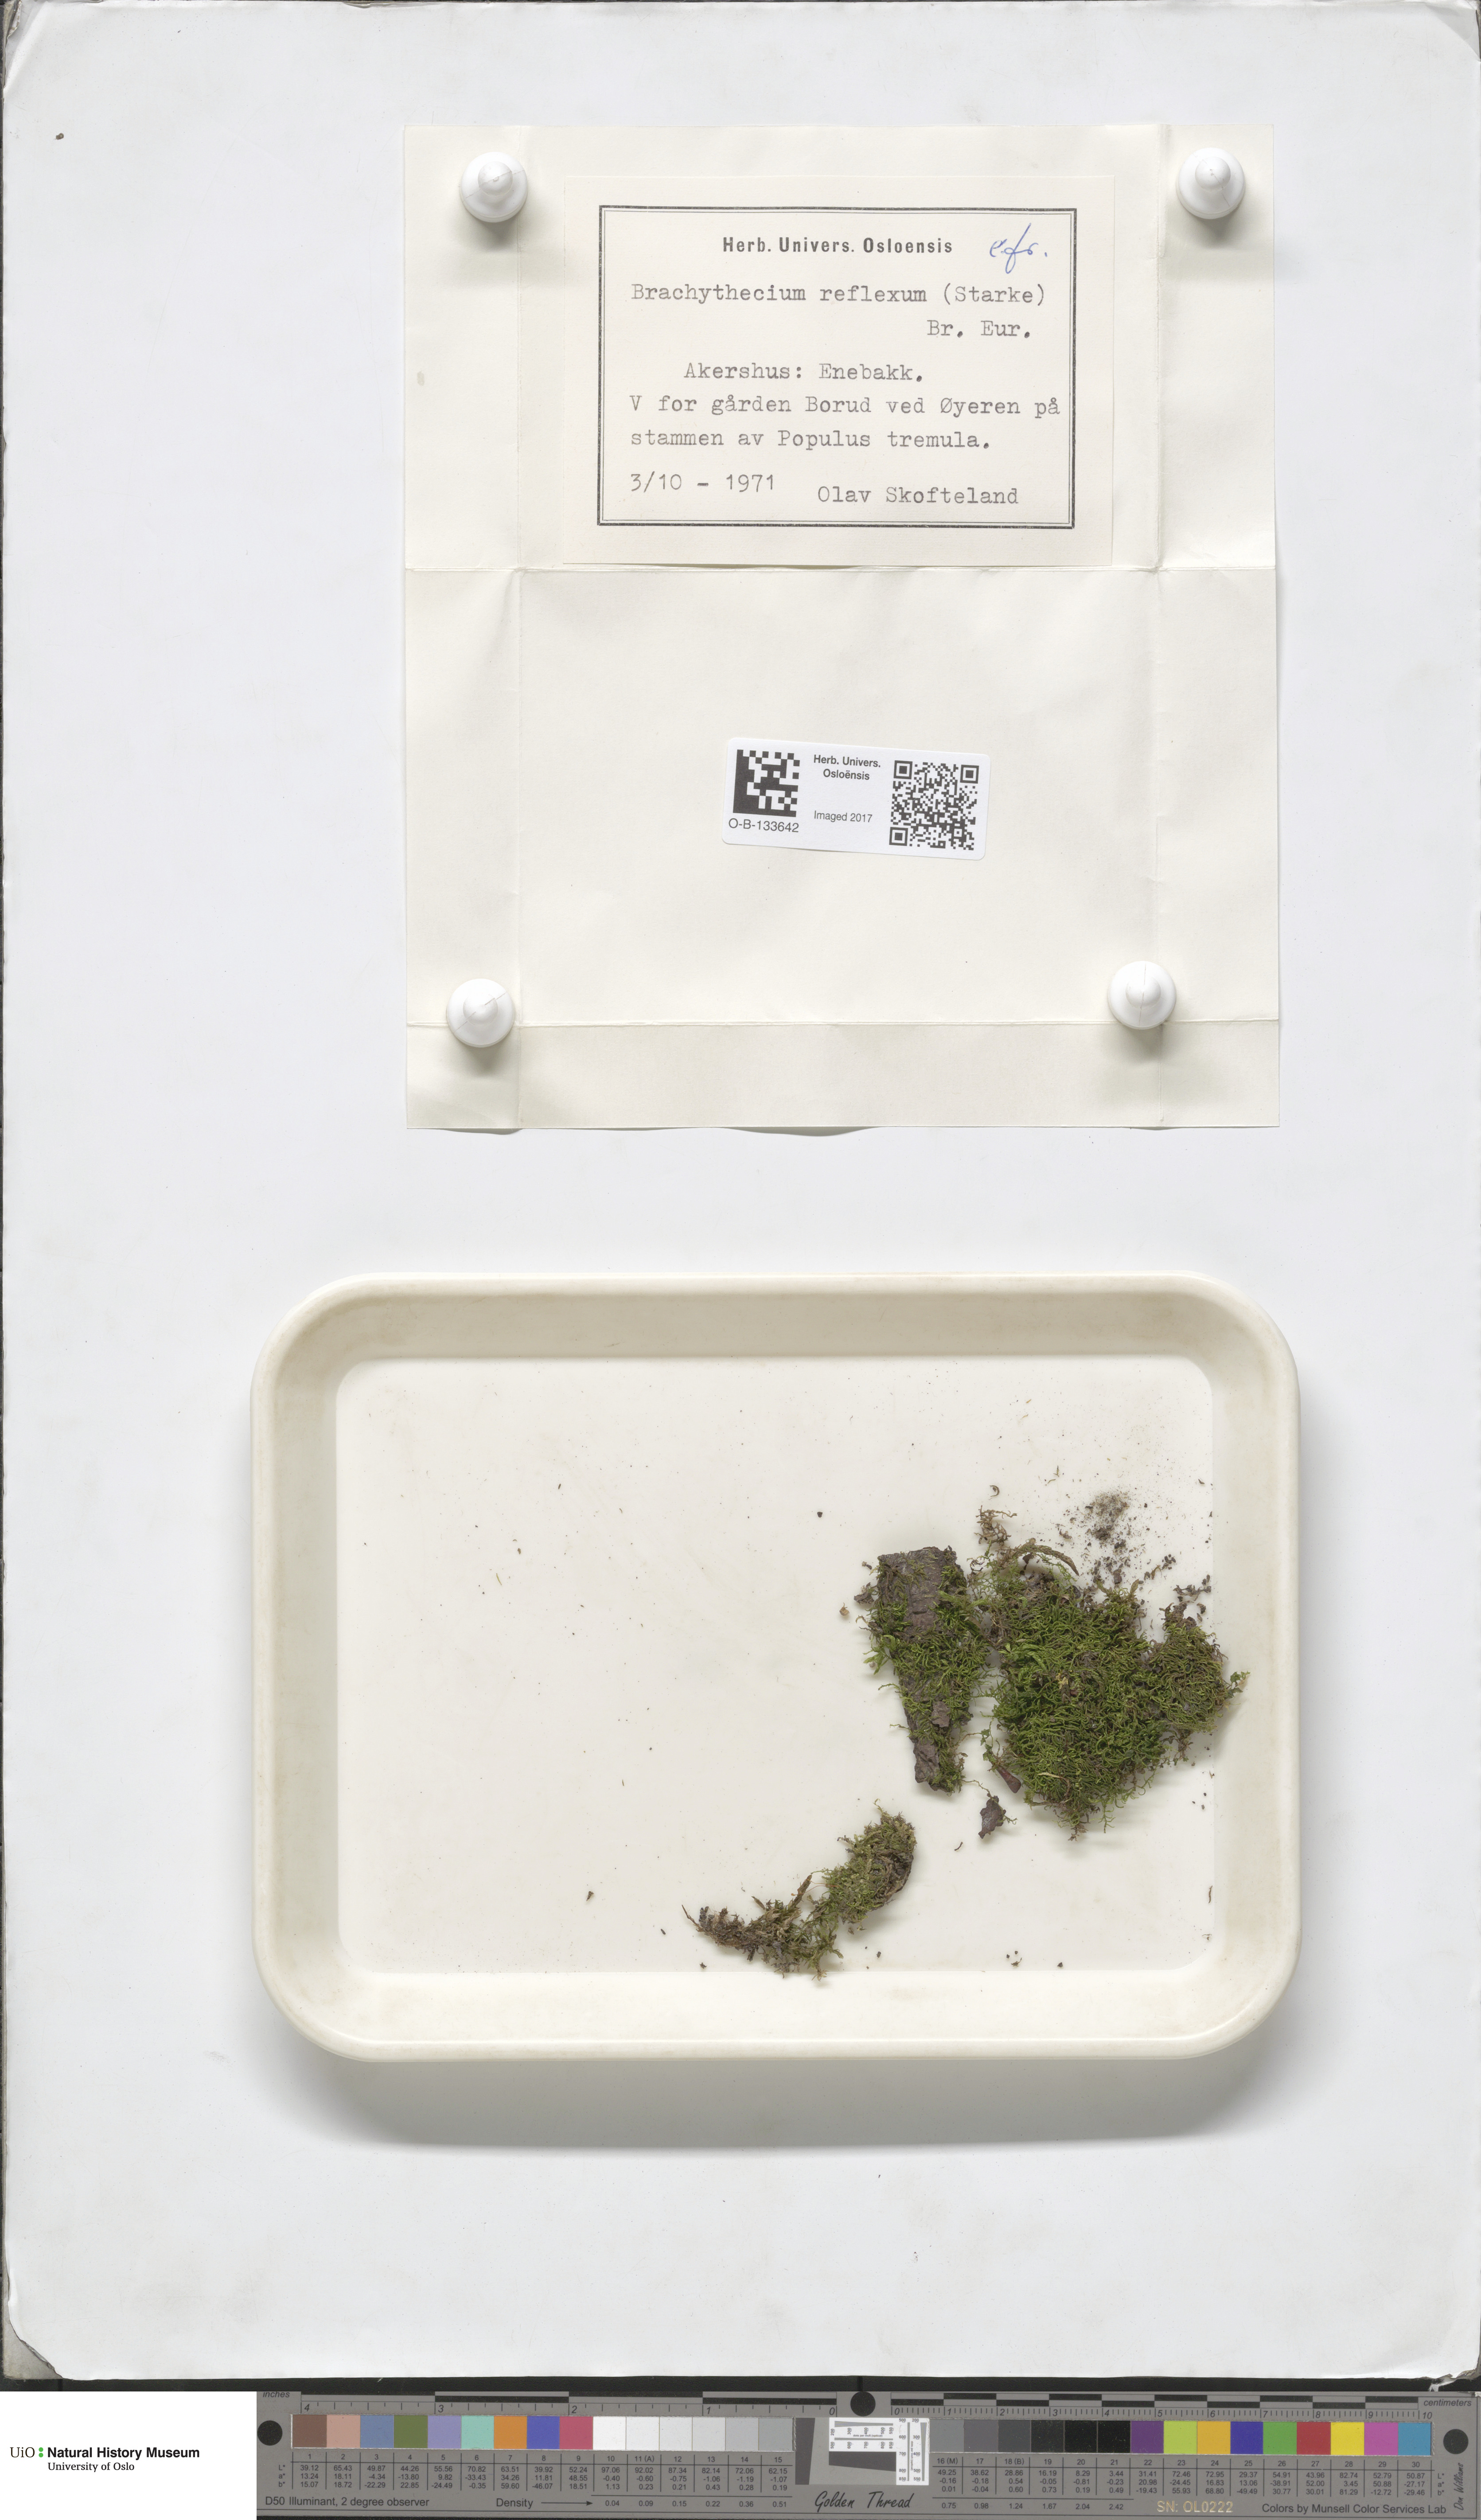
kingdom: Plantae
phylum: Bryophyta
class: Bryopsida
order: Hypnales
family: Brachytheciaceae
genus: Sciuro-hypnum
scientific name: Sciuro-hypnum reflexum
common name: Reflexed feather-moss
